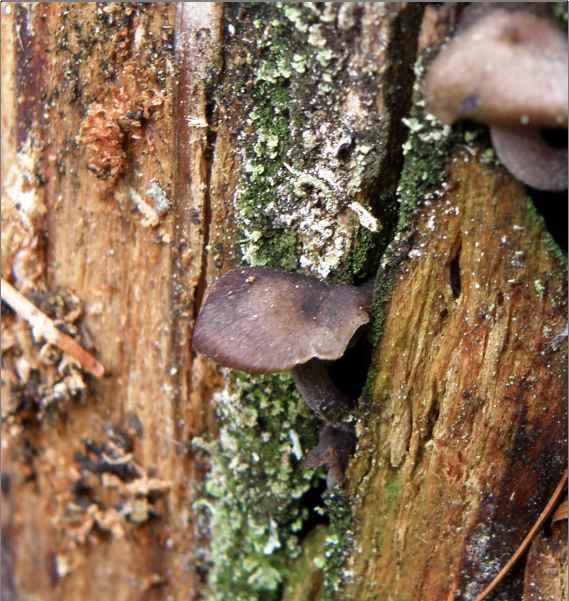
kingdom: Fungi
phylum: Basidiomycota
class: Agaricomycetes
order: Agaricales
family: Entolomataceae
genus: Entoloma
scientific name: Entoloma
